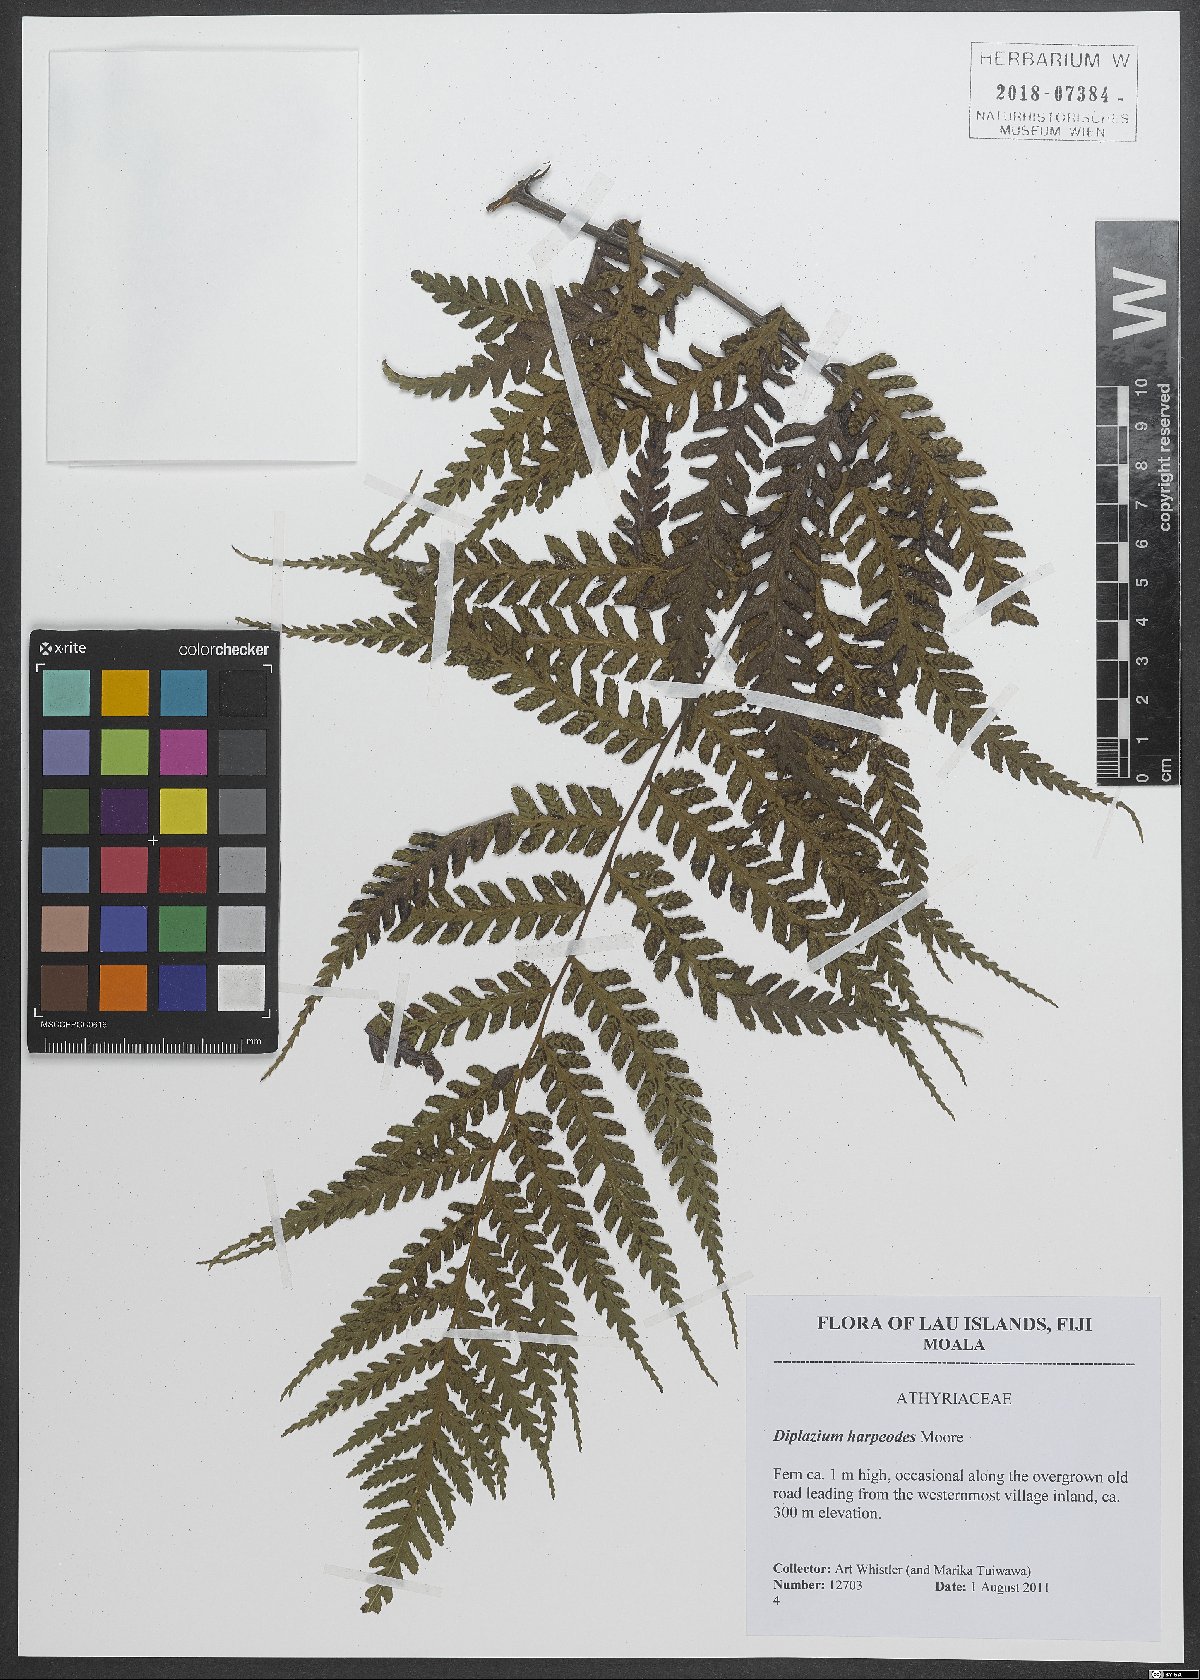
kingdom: Plantae
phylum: Tracheophyta
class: Polypodiopsida
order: Polypodiales
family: Athyriaceae
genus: Diplazium
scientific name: Diplazium harpeodes
